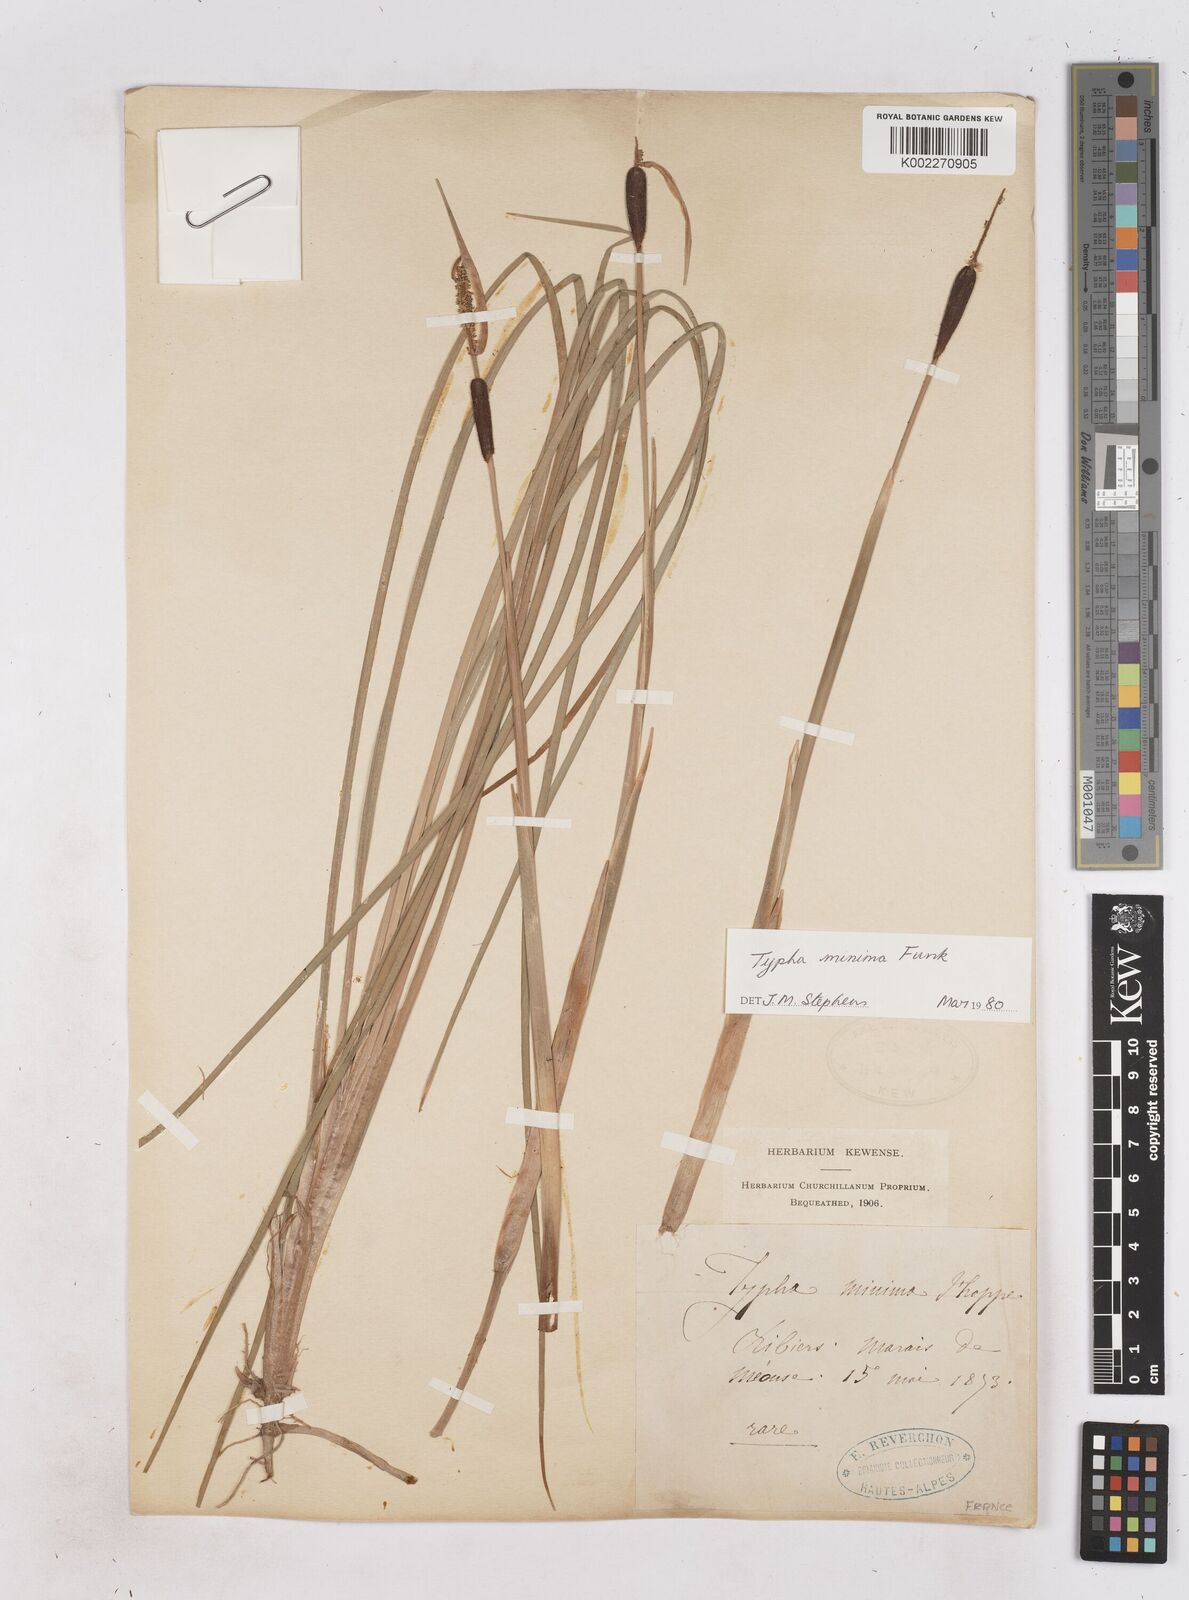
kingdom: Plantae
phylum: Tracheophyta
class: Liliopsida
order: Poales
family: Typhaceae
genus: Typha
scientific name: Typha
